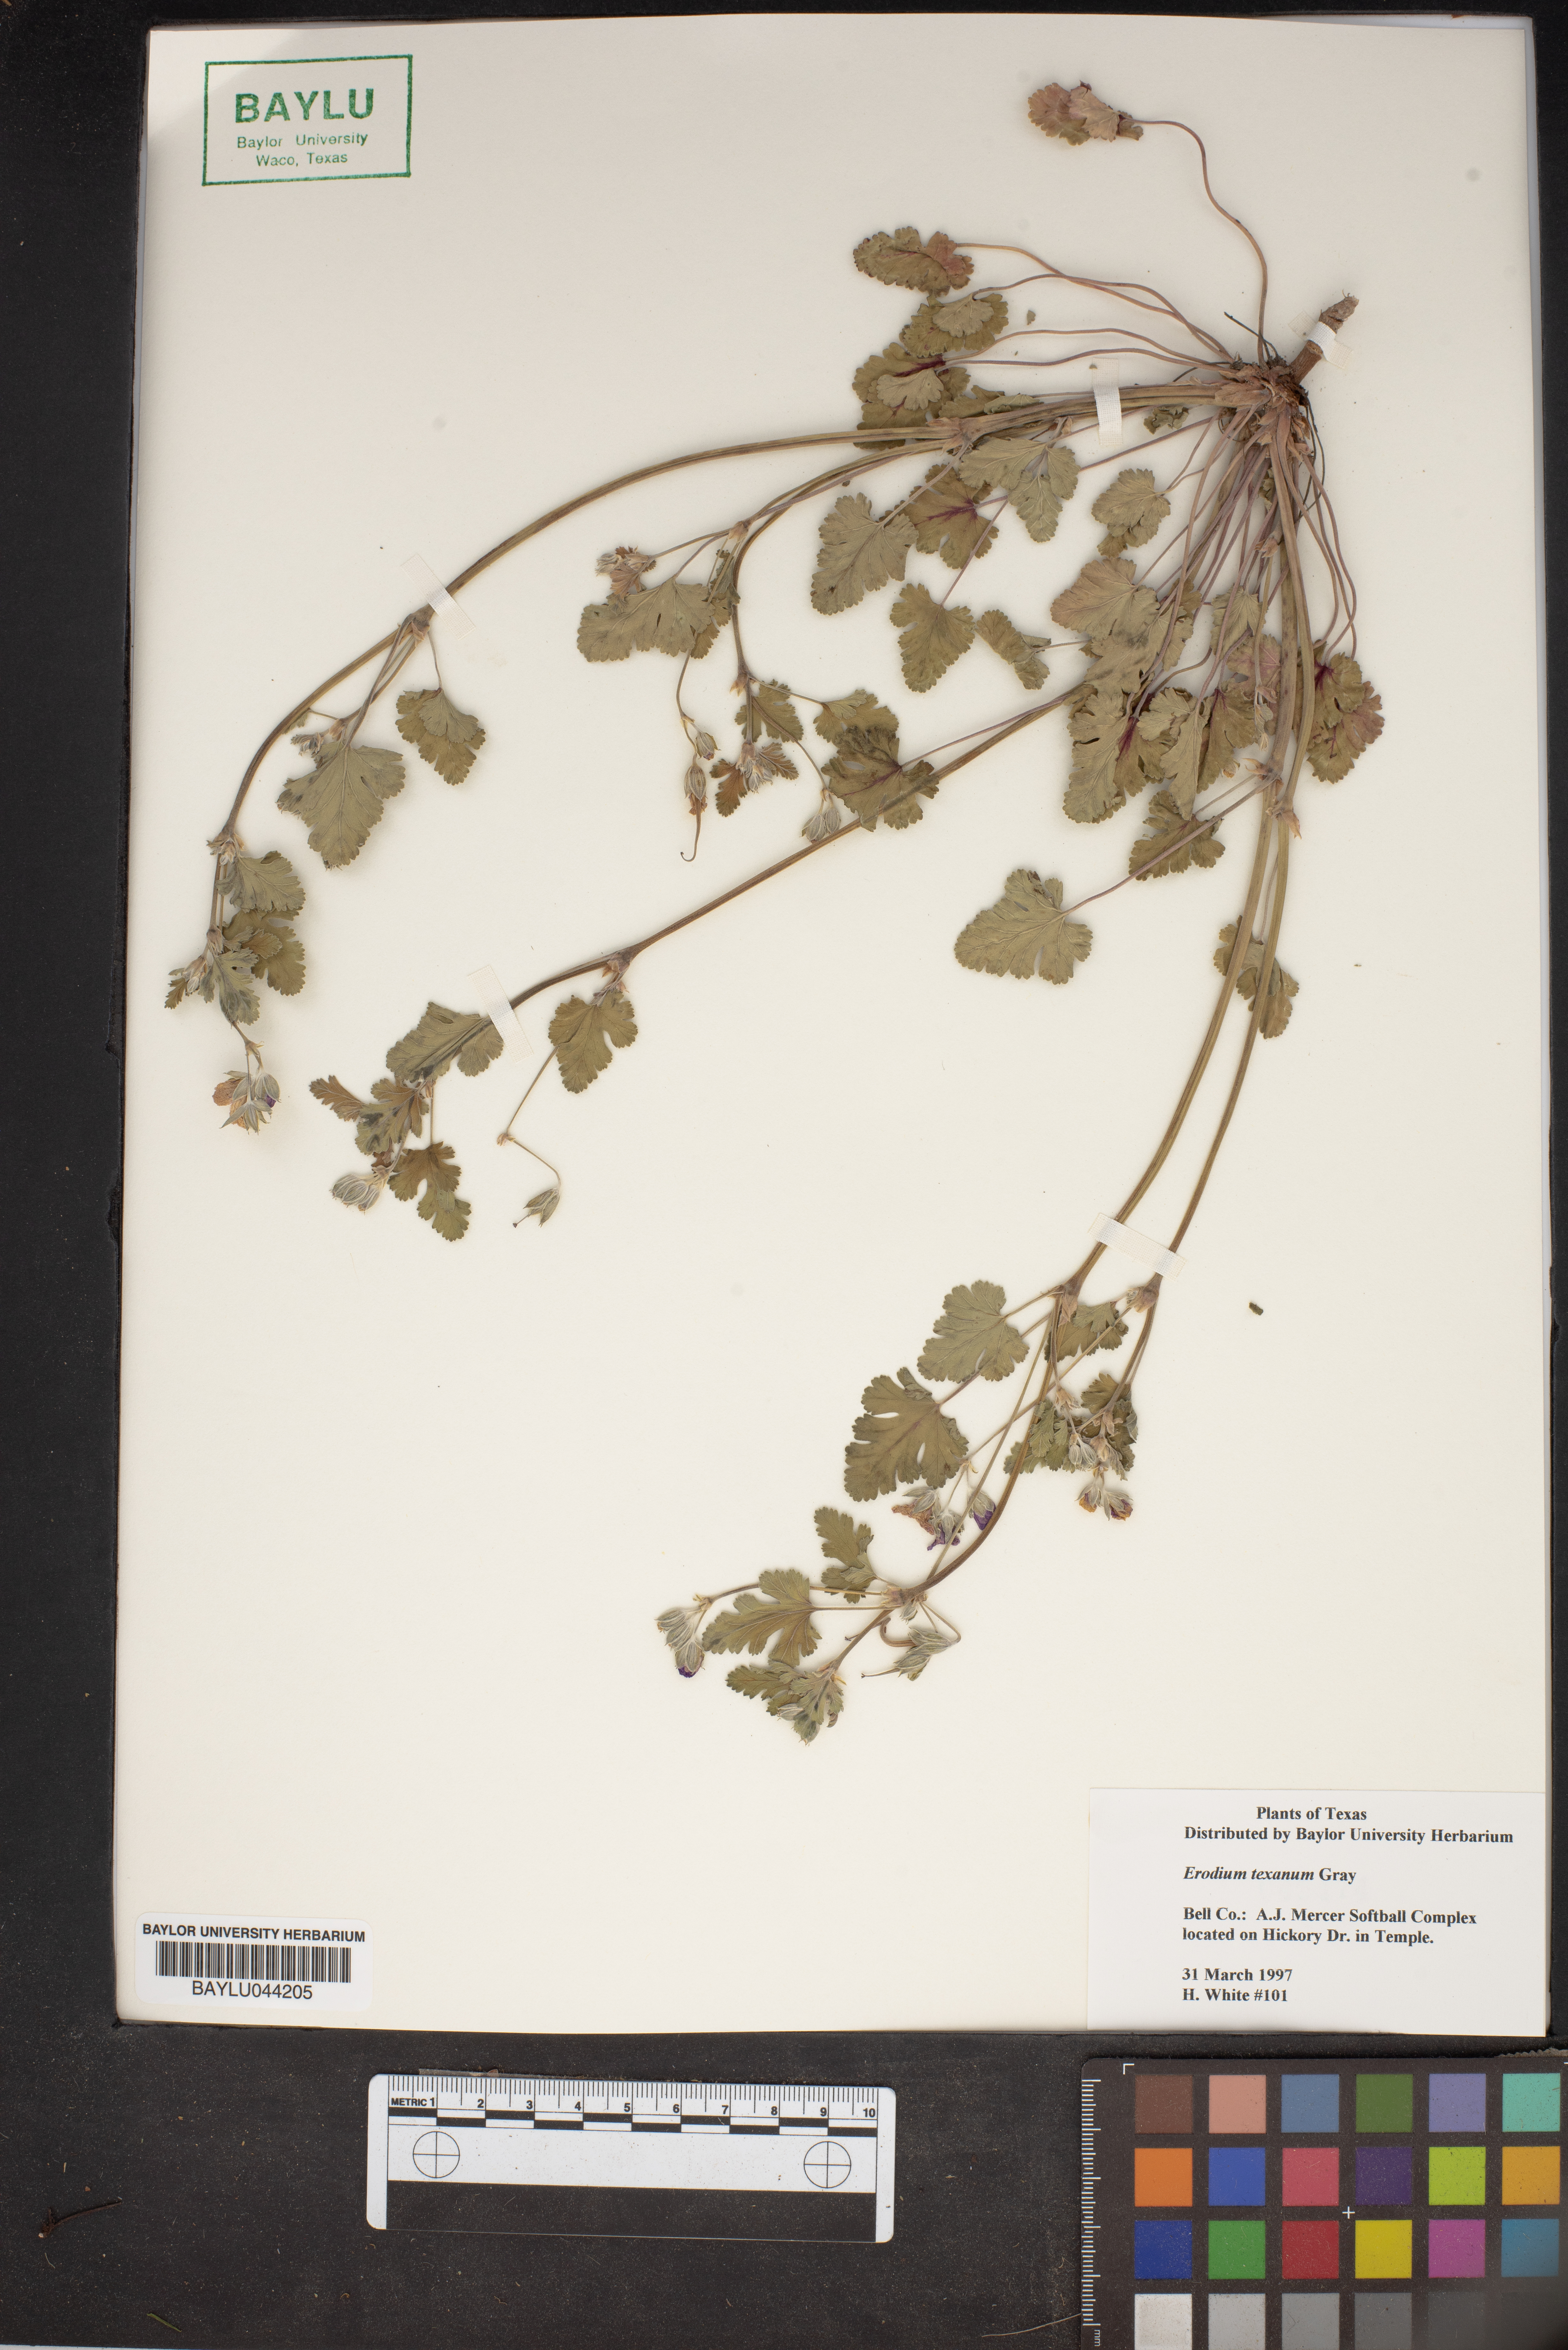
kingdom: Plantae
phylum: Tracheophyta
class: Magnoliopsida
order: Geraniales
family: Geraniaceae
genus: Erodium
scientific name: Erodium texanum
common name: Texas stork's-bill
